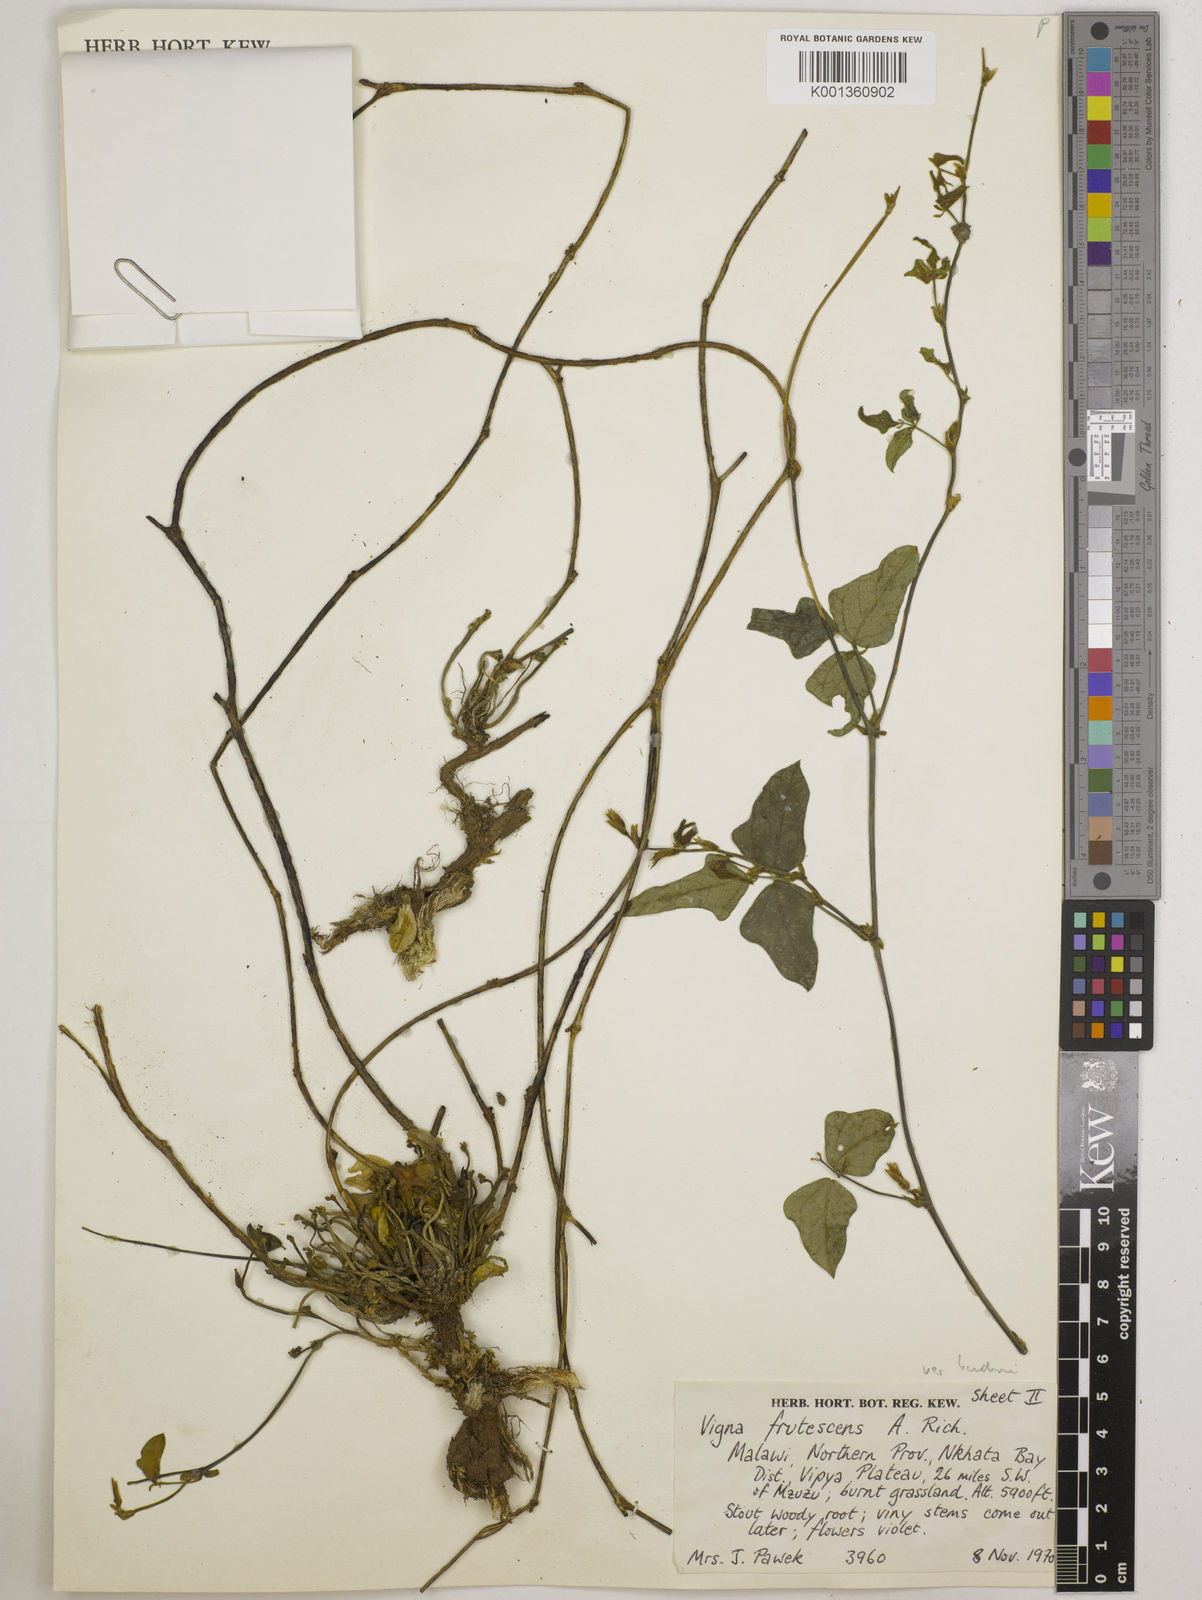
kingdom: Plantae
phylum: Tracheophyta
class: Magnoliopsida
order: Fabales
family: Fabaceae
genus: Vigna
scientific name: Vigna
